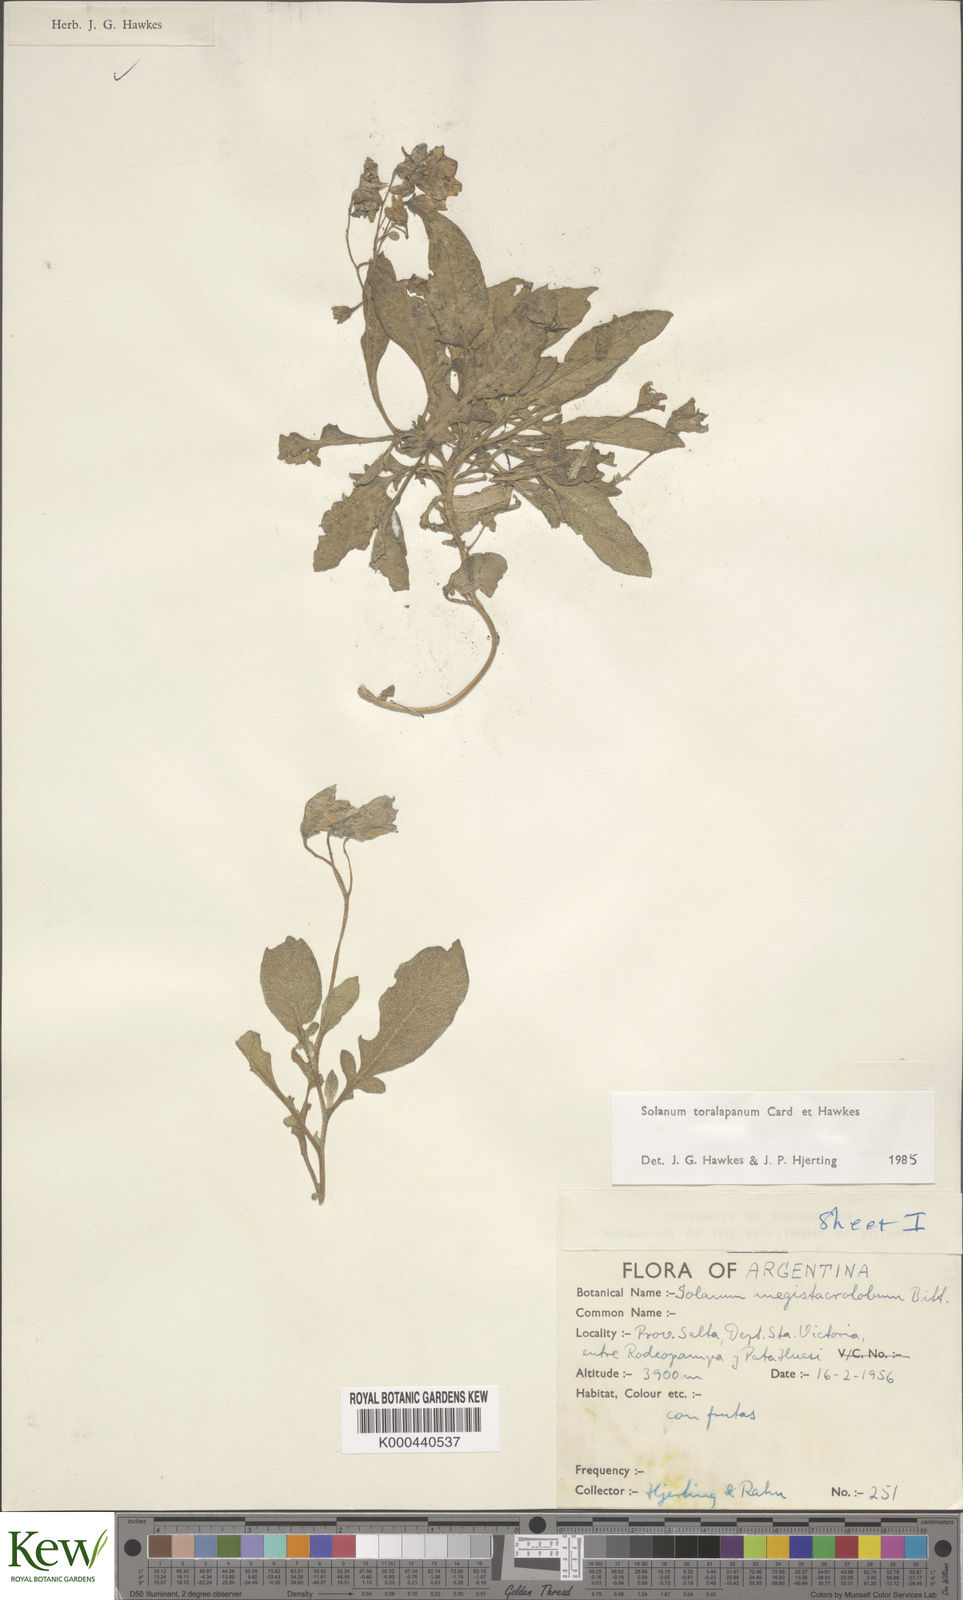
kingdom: Plantae
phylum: Tracheophyta
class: Magnoliopsida
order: Solanales
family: Solanaceae
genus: Solanum
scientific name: Solanum
